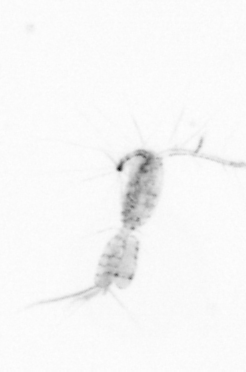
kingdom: Animalia
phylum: Arthropoda
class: Copepoda
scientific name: Copepoda
